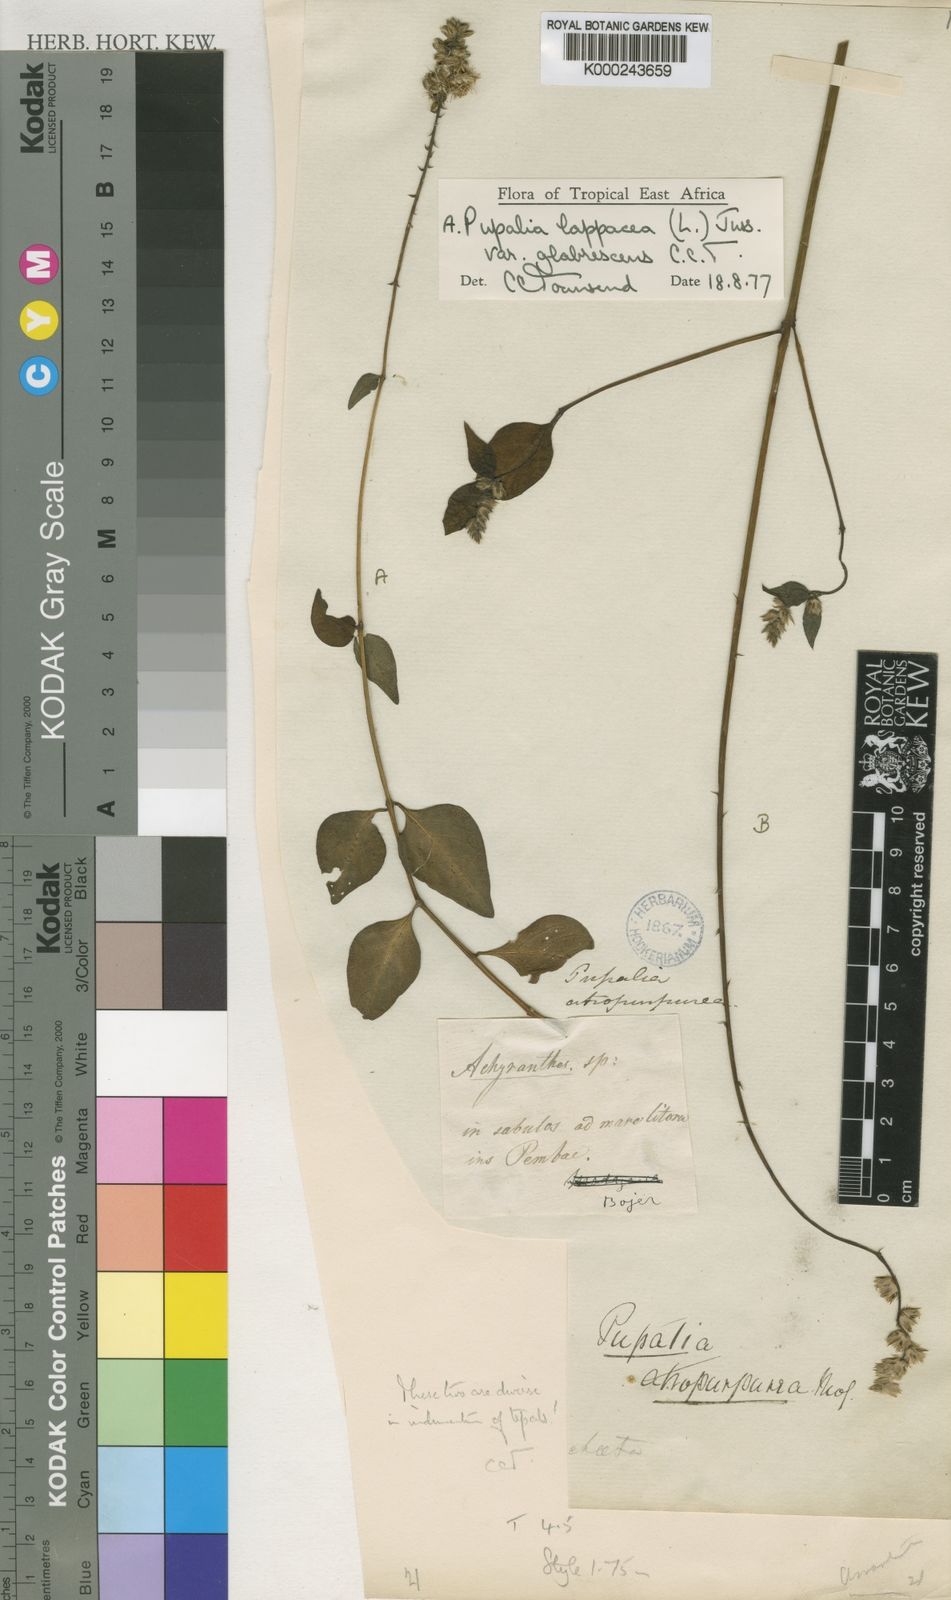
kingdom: Plantae
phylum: Tracheophyta
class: Magnoliopsida
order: Caryophyllales
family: Amaranthaceae
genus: Pupalia
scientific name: Pupalia lappacea
